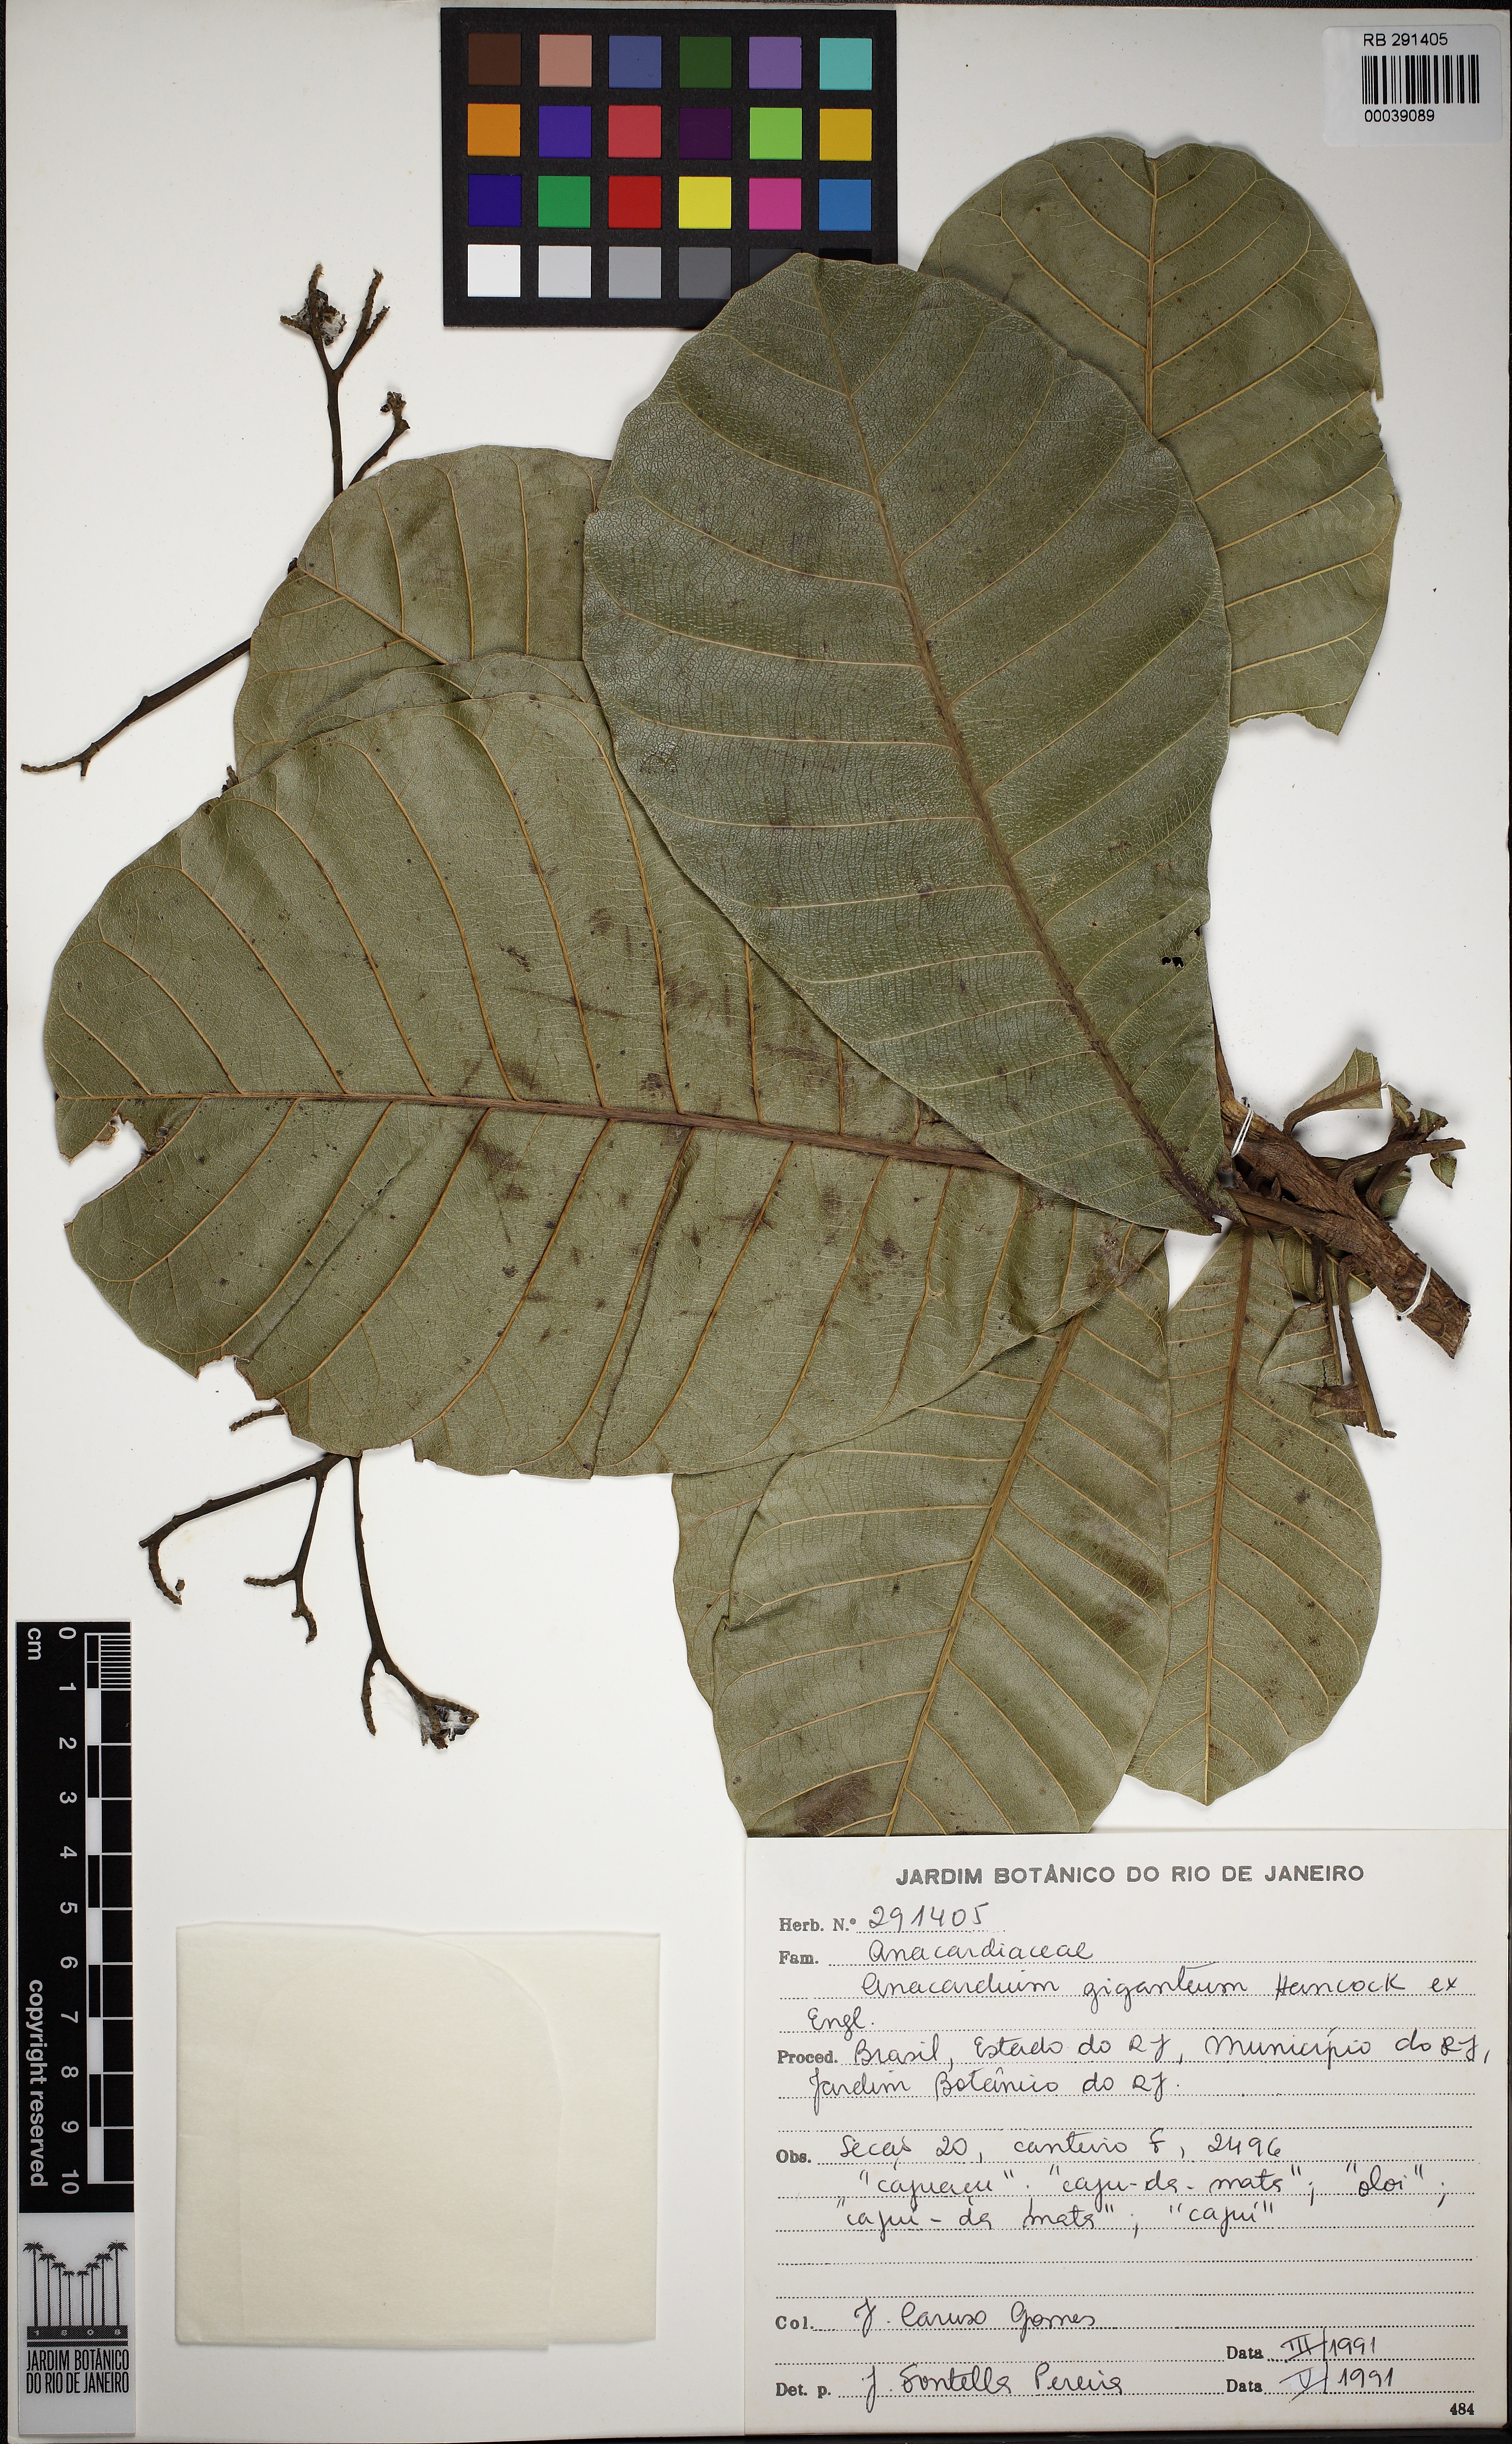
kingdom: Plantae
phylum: Tracheophyta
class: Magnoliopsida
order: Sapindales
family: Anacardiaceae
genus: Anacardium
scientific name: Anacardium giganteum
